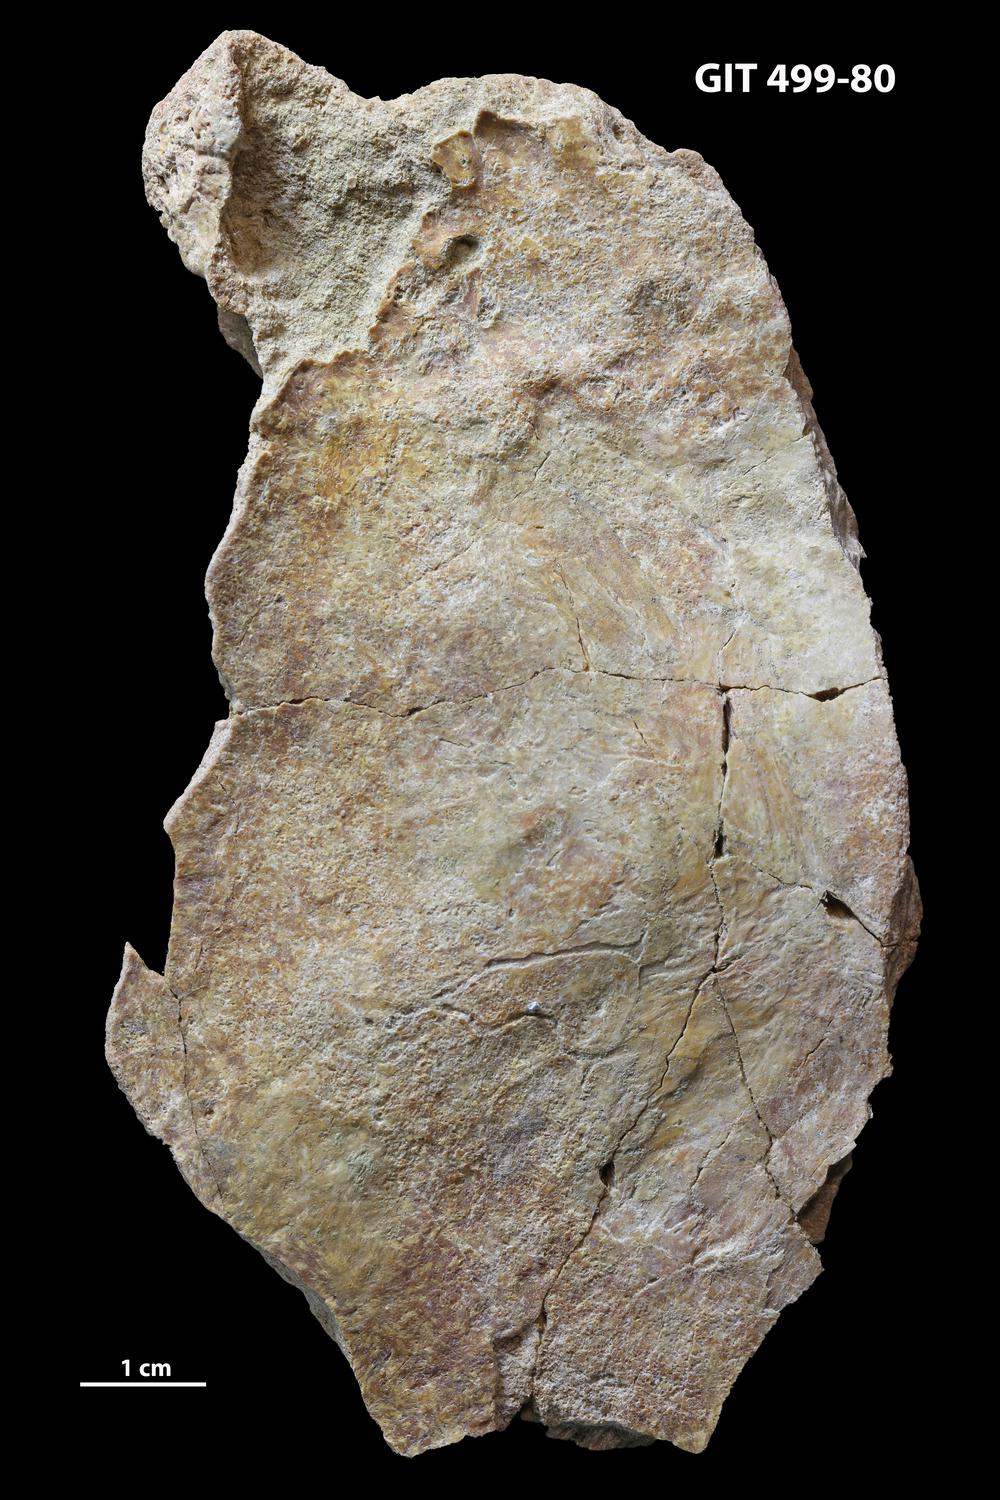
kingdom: Animalia
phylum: Chordata
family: Holoptychiidae
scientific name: Holoptychiidae
